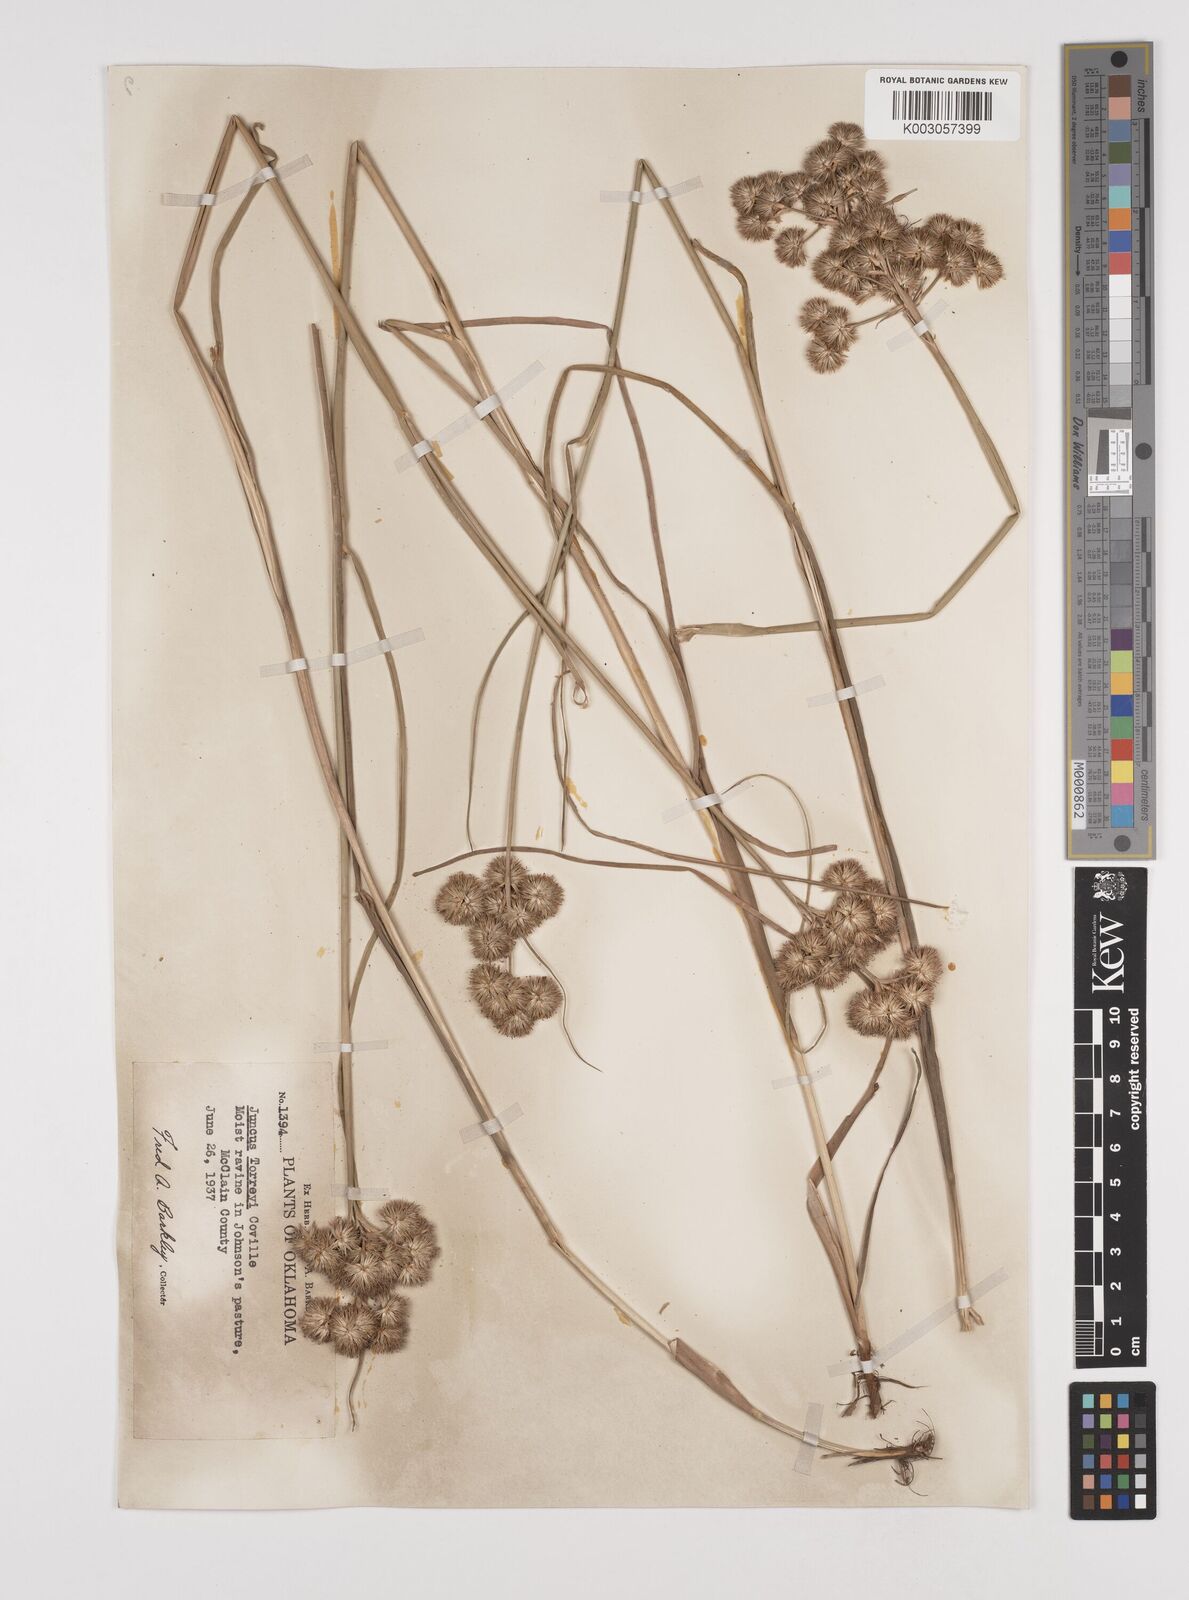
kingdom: Plantae
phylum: Tracheophyta
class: Liliopsida
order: Poales
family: Juncaceae
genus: Juncus
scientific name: Juncus torreyi
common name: Torrey's rush
